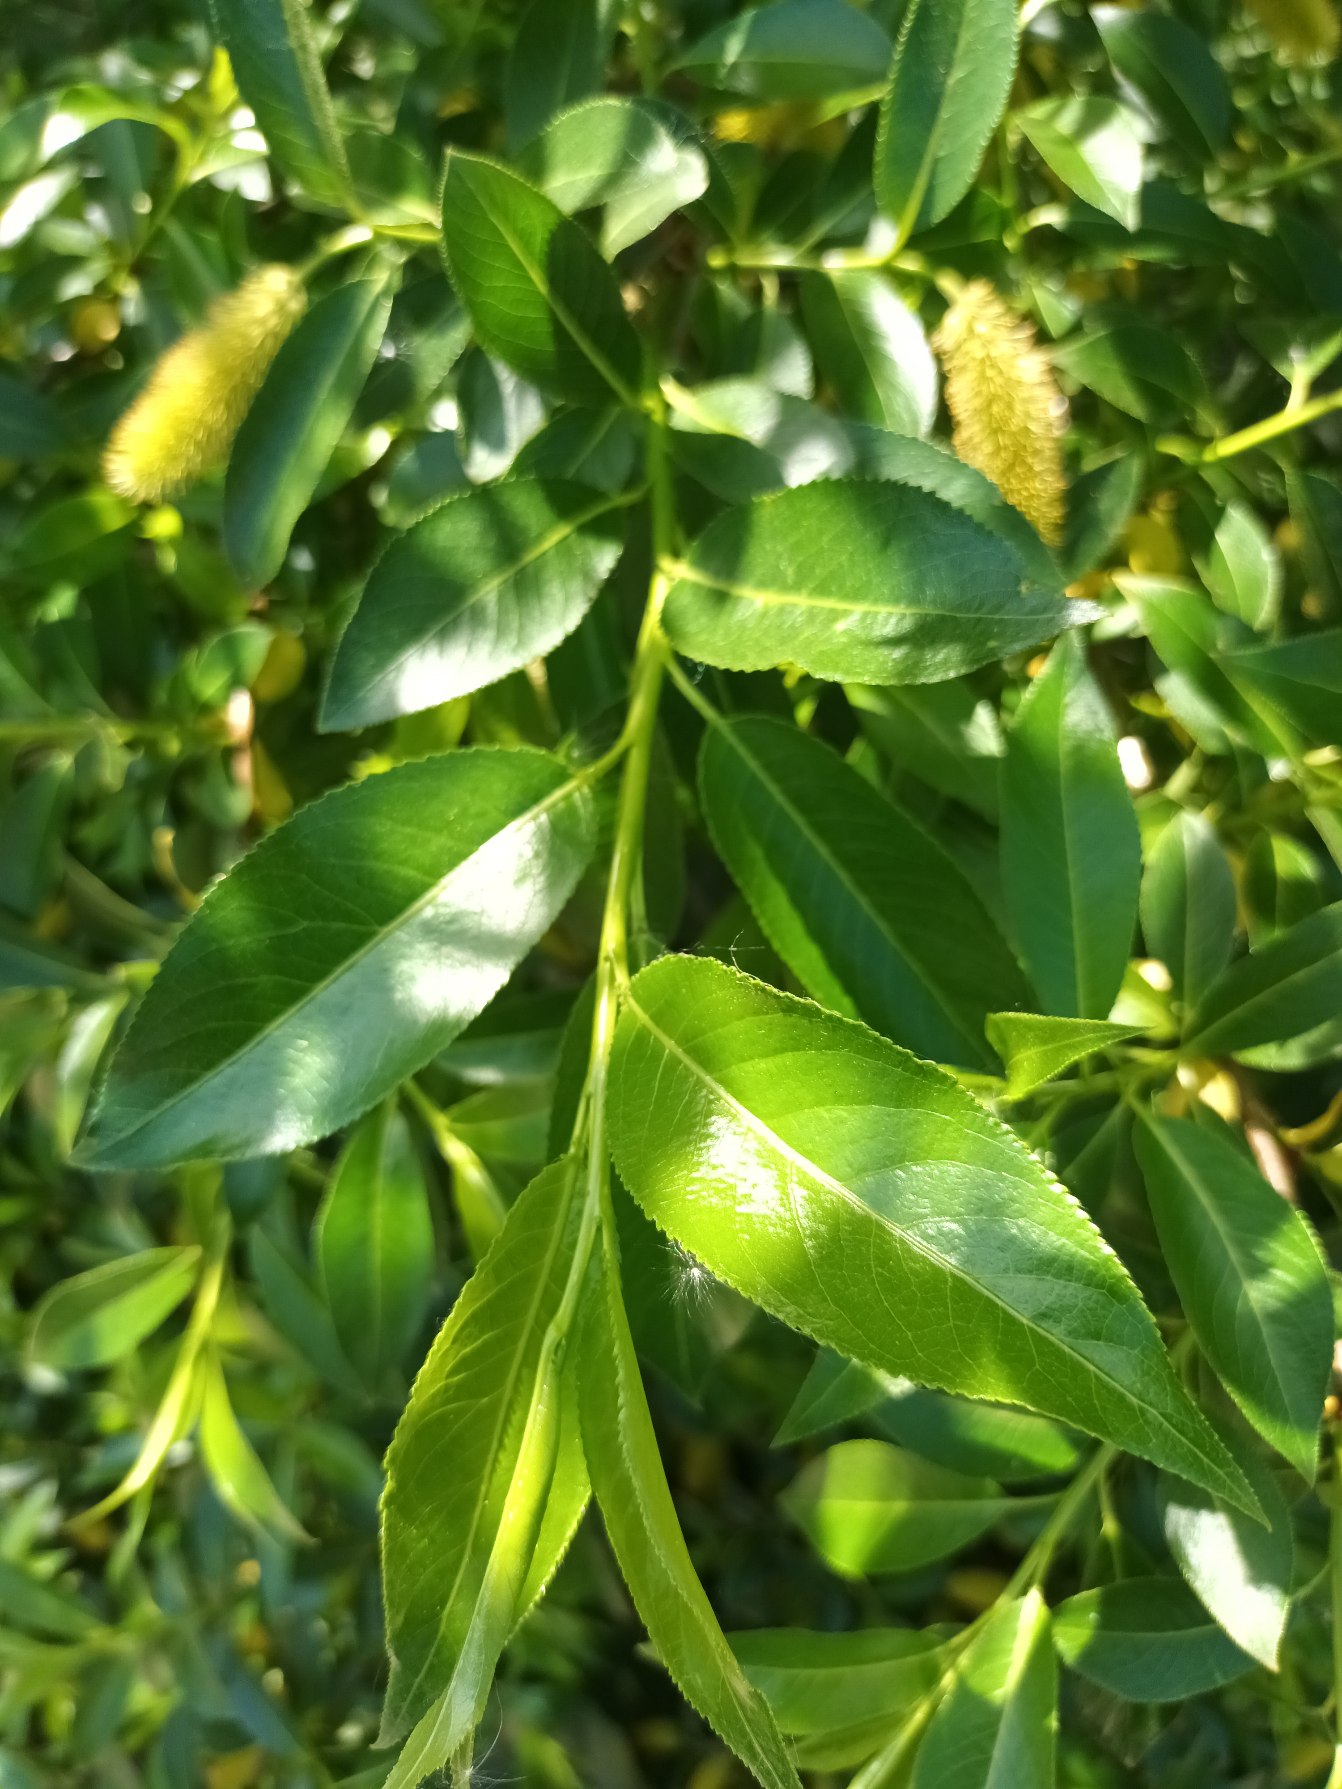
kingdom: Plantae
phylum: Tracheophyta
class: Magnoliopsida
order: Malpighiales
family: Salicaceae
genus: Salix
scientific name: Salix pentandra
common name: Femhannet pil
